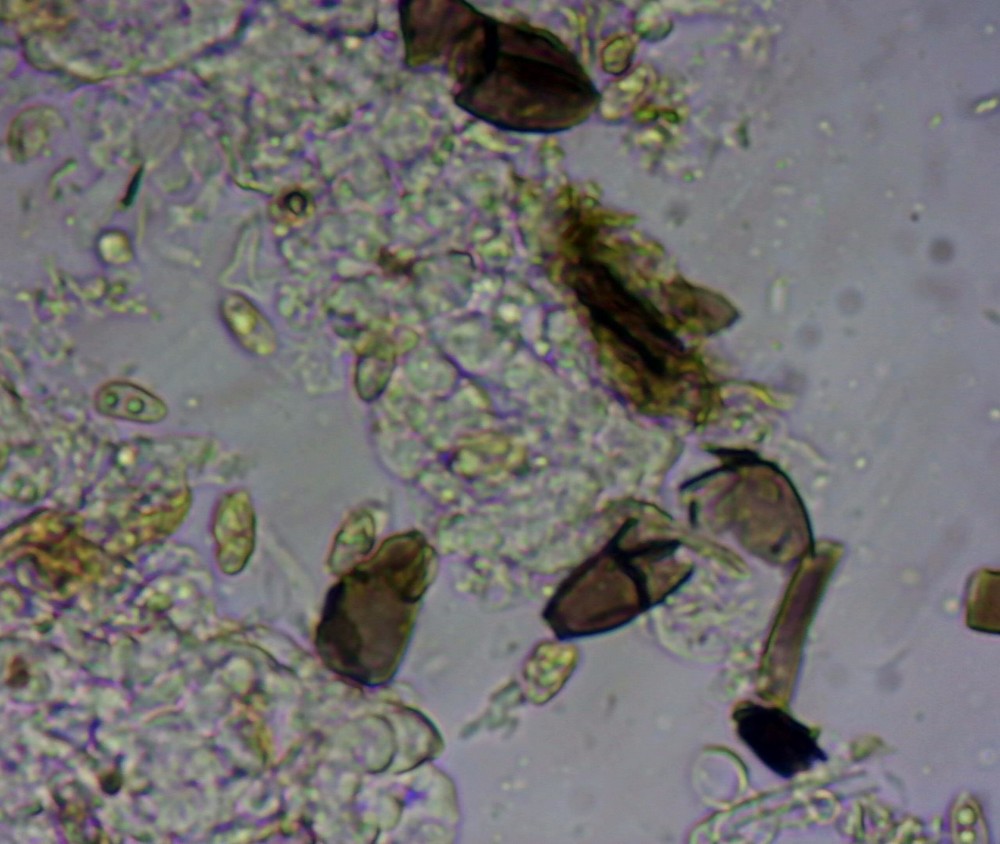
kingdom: Fungi
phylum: Basidiomycota
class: Agaricomycetes
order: Agaricales
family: Crepidotaceae
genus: Pellidiscus
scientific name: Pellidiscus pallidus
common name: skålformet muslingesvamp
